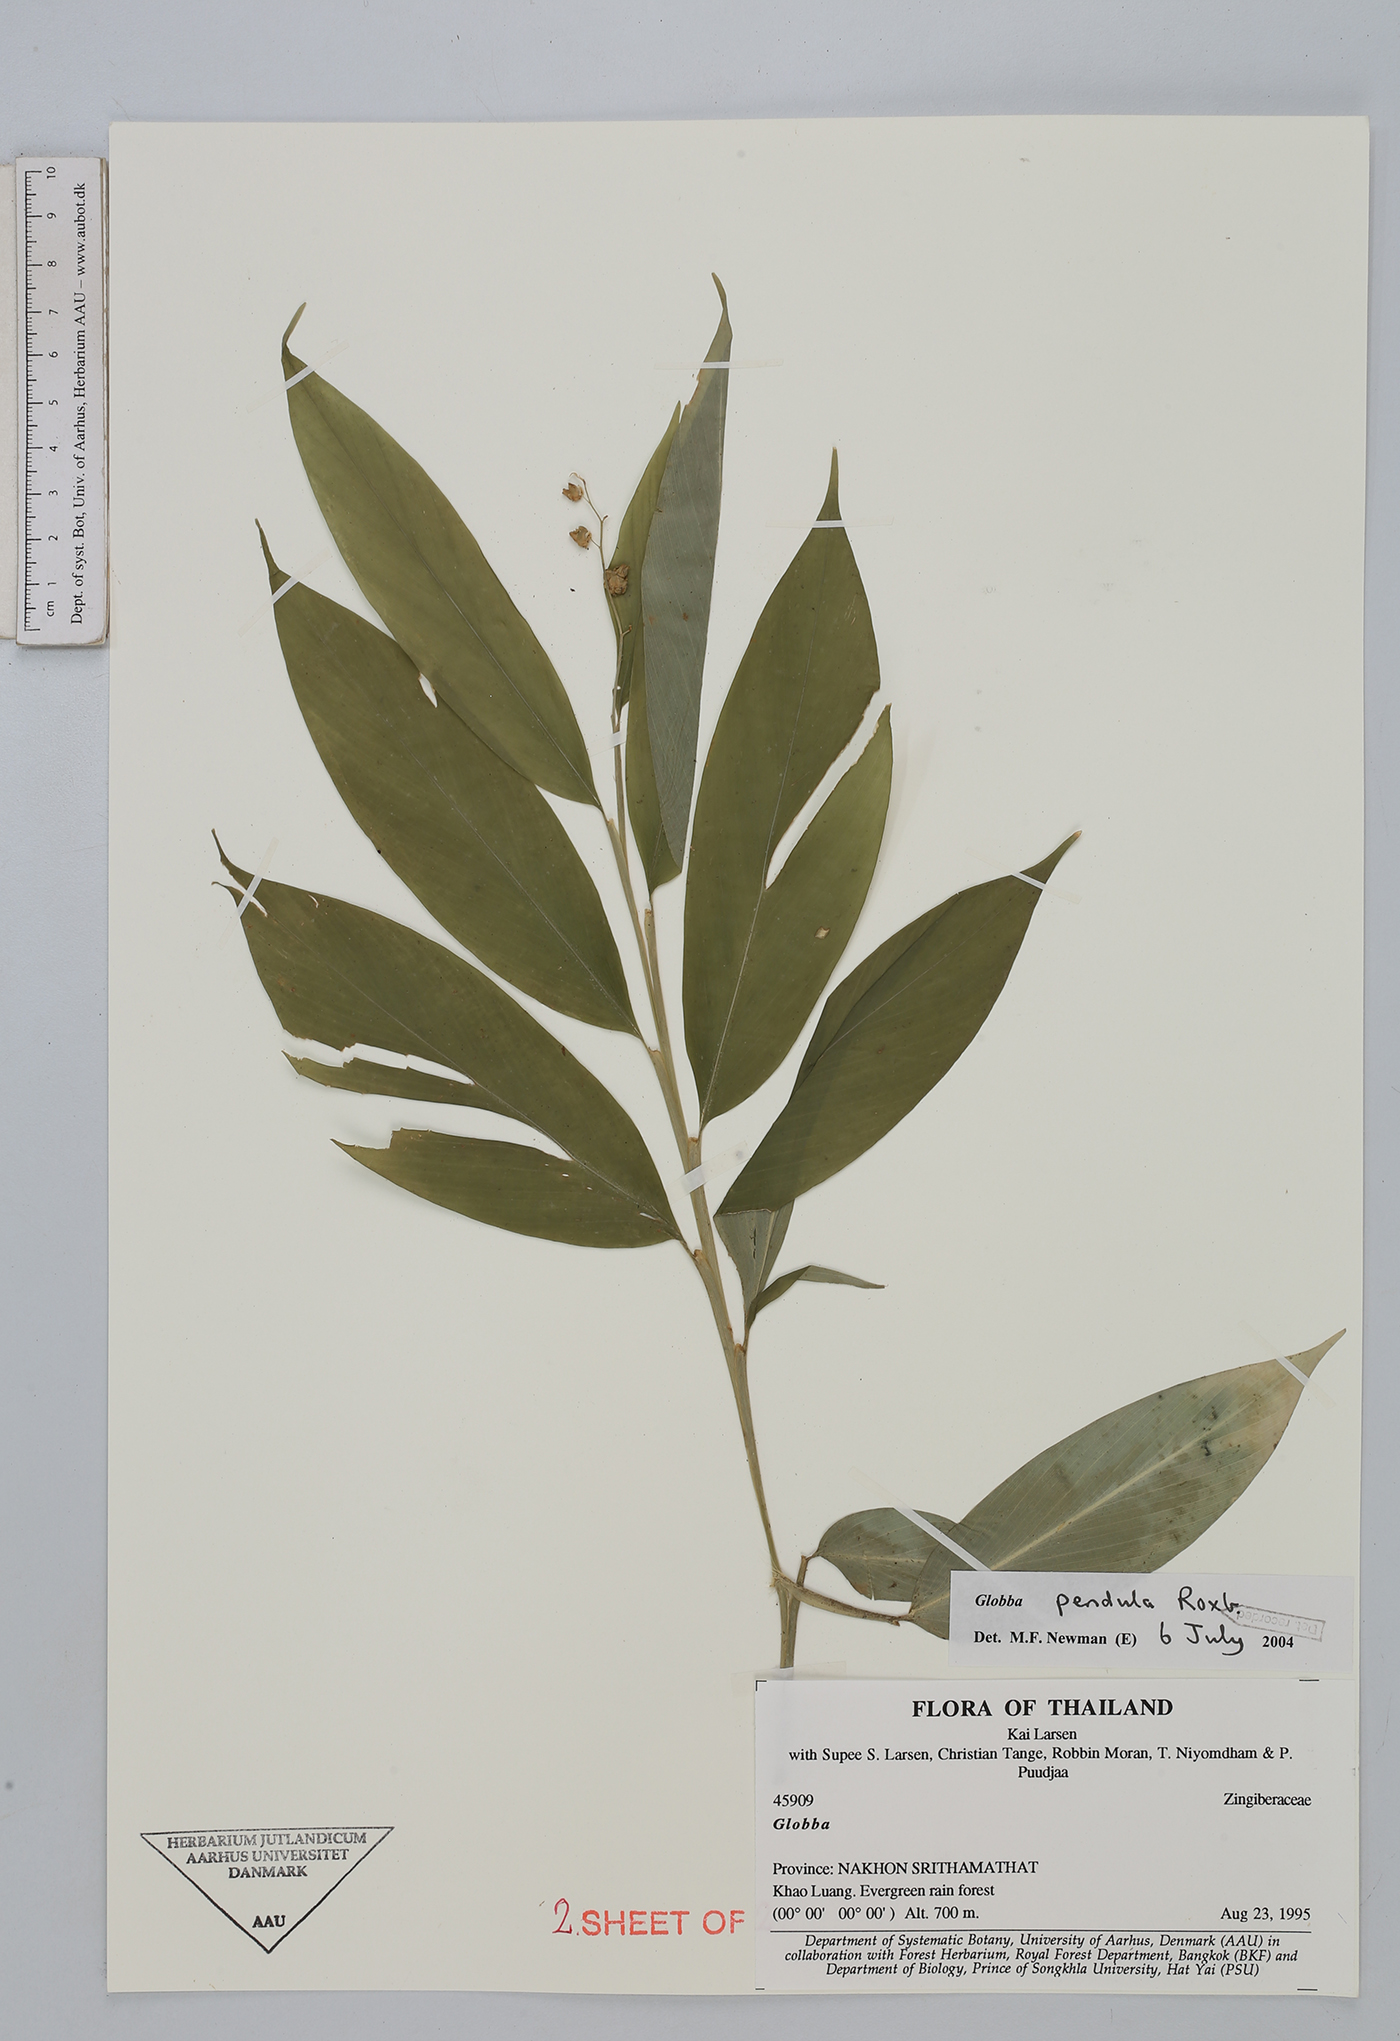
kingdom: Plantae
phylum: Tracheophyta
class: Liliopsida
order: Zingiberales
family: Zingiberaceae
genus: Globba
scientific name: Globba pendula
